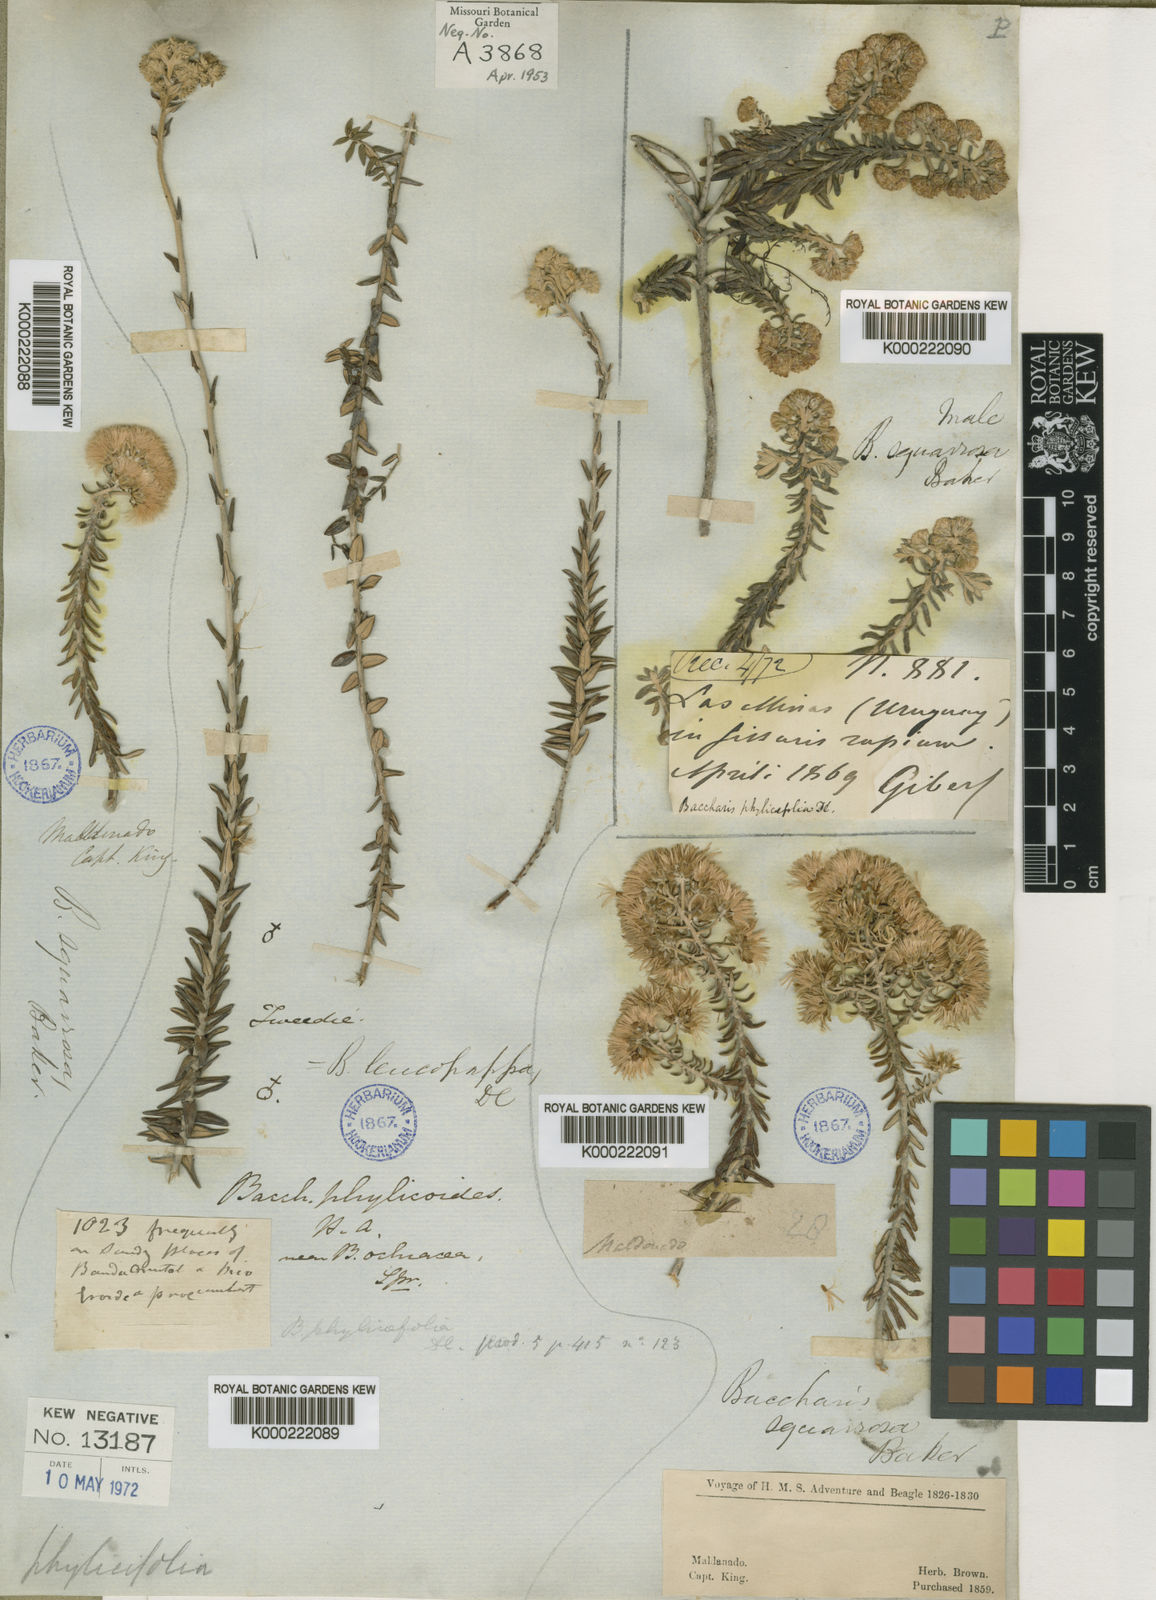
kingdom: Plantae
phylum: Tracheophyta
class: Magnoliopsida
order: Asterales
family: Asteraceae
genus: Lucilia
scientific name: Lucilia acutifolia
